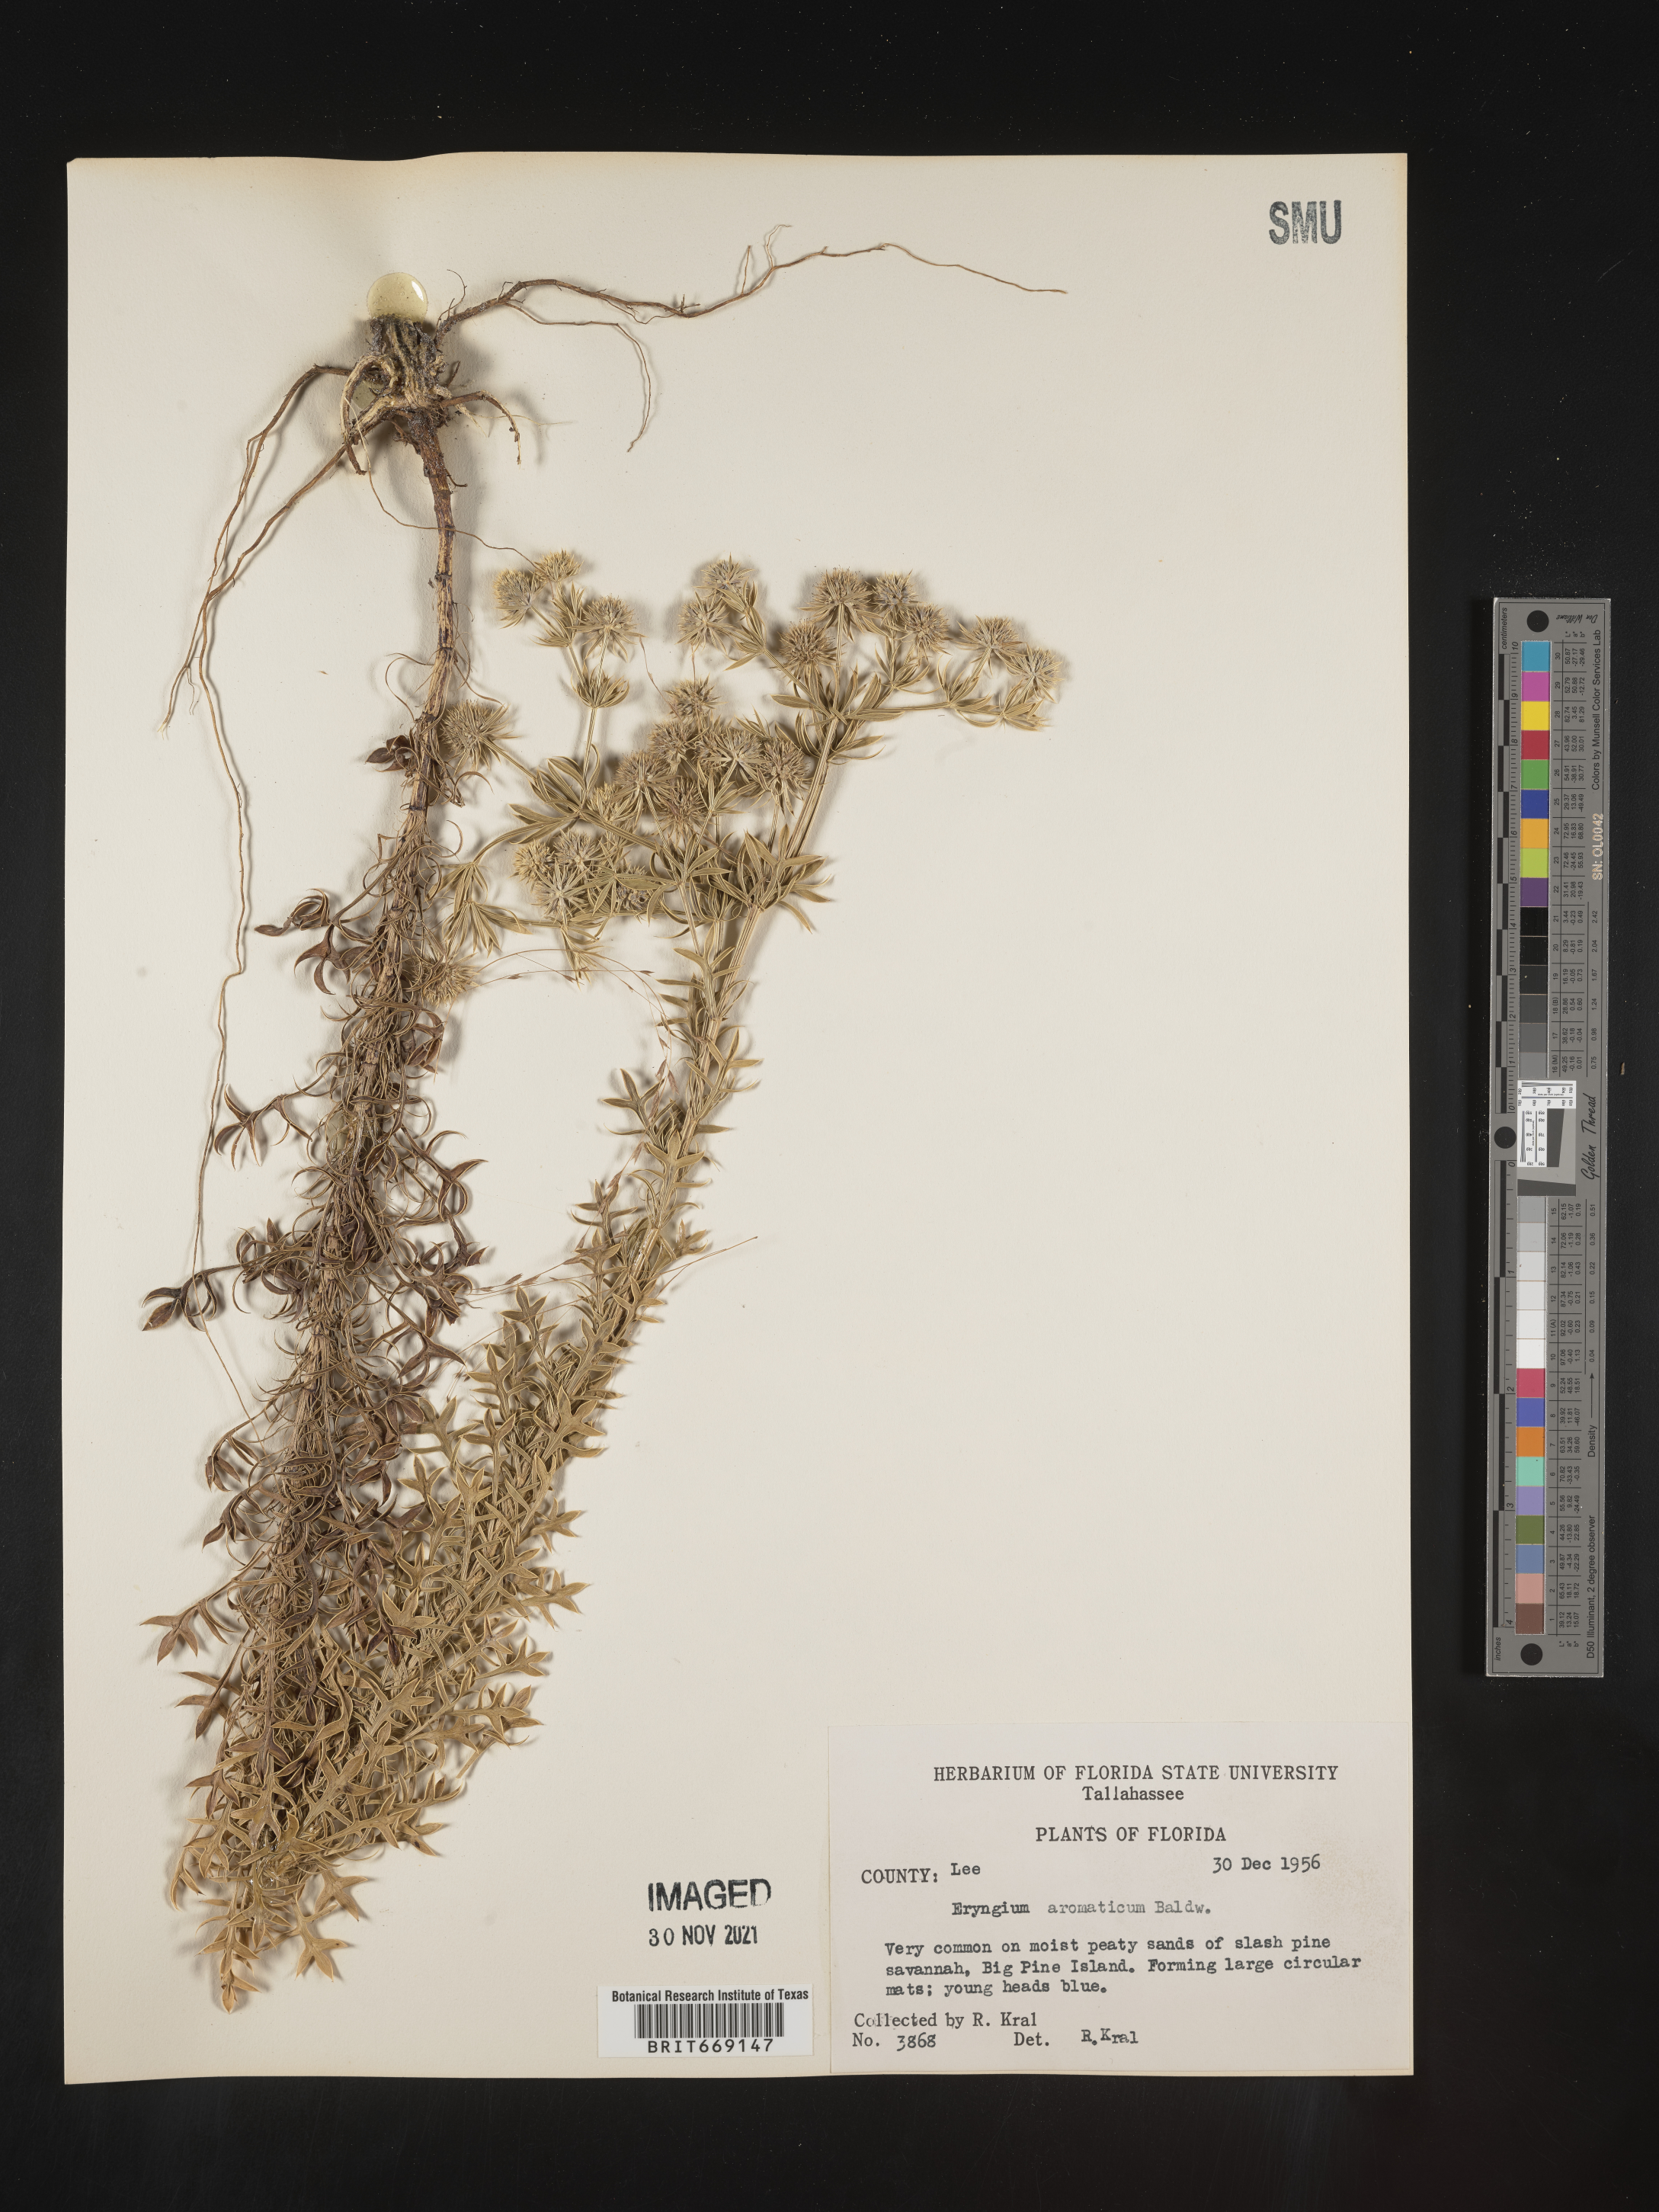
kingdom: Plantae
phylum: Tracheophyta
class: Magnoliopsida
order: Apiales
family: Apiaceae
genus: Eryngium
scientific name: Eryngium aromaticum
